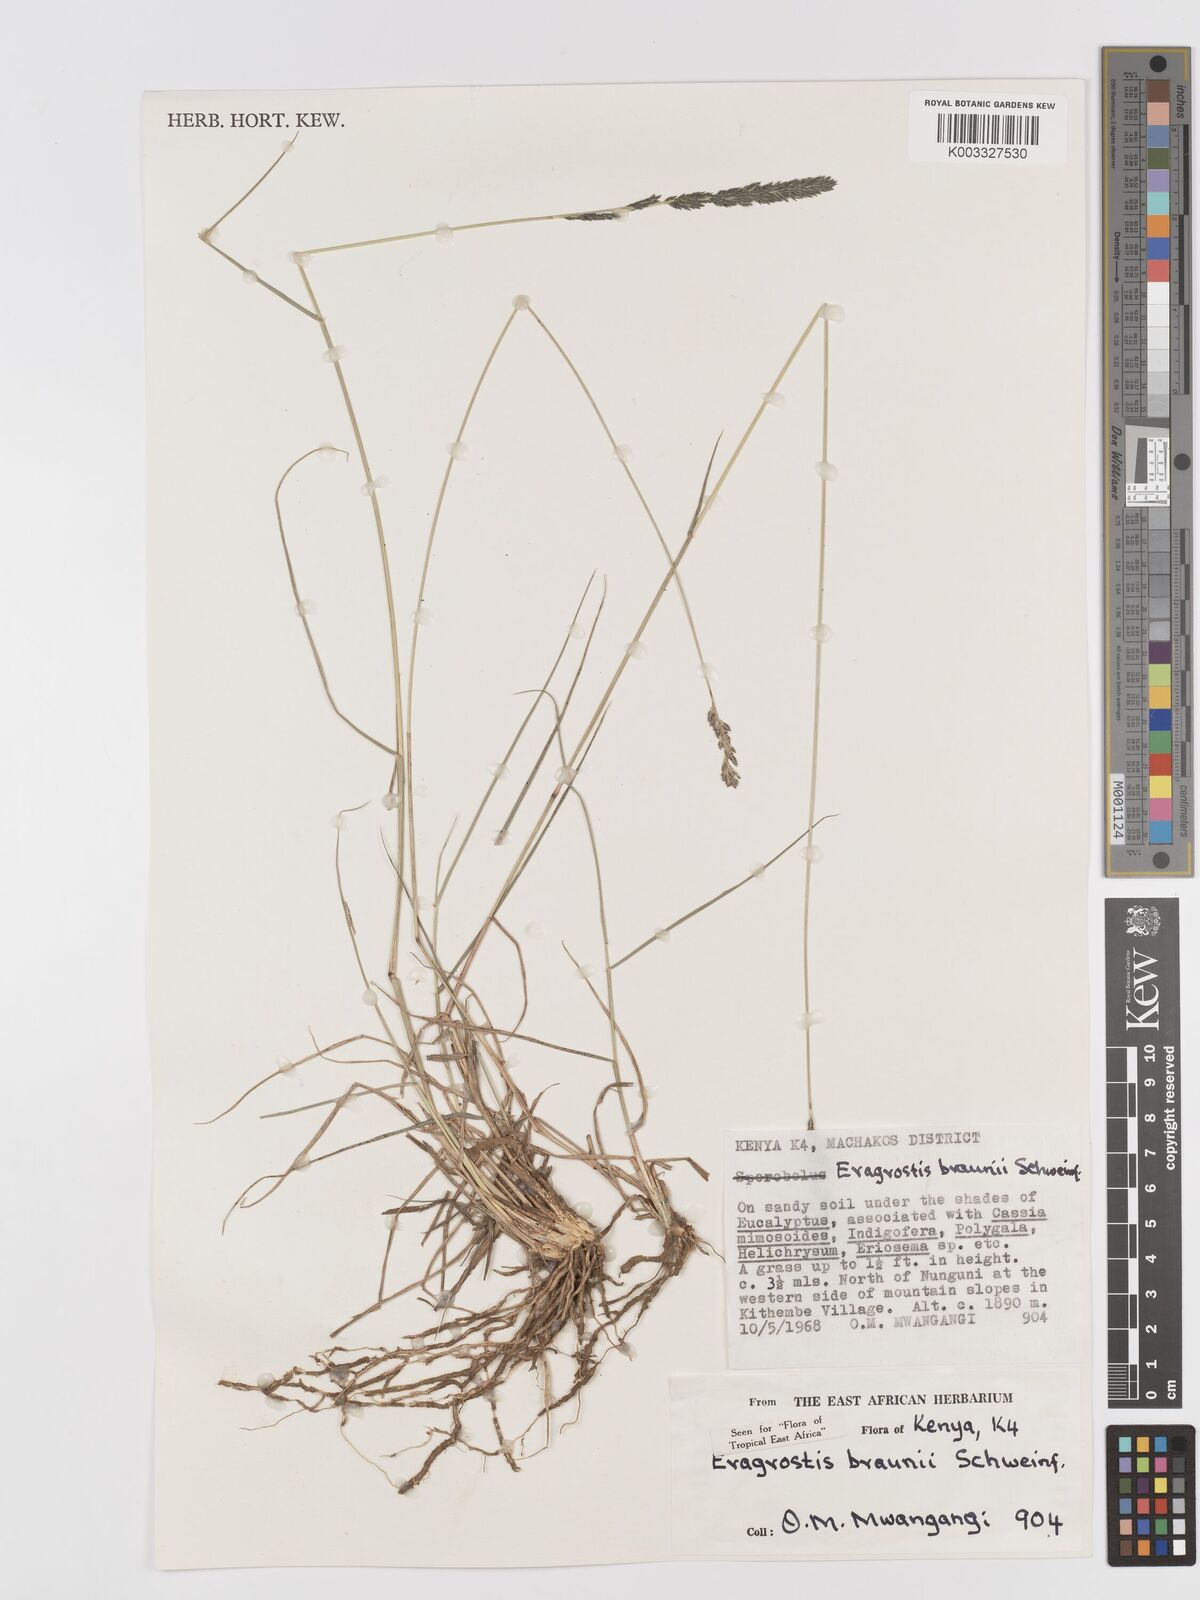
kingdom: Plantae
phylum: Tracheophyta
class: Liliopsida
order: Poales
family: Poaceae
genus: Eragrostis
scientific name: Eragrostis braunii
